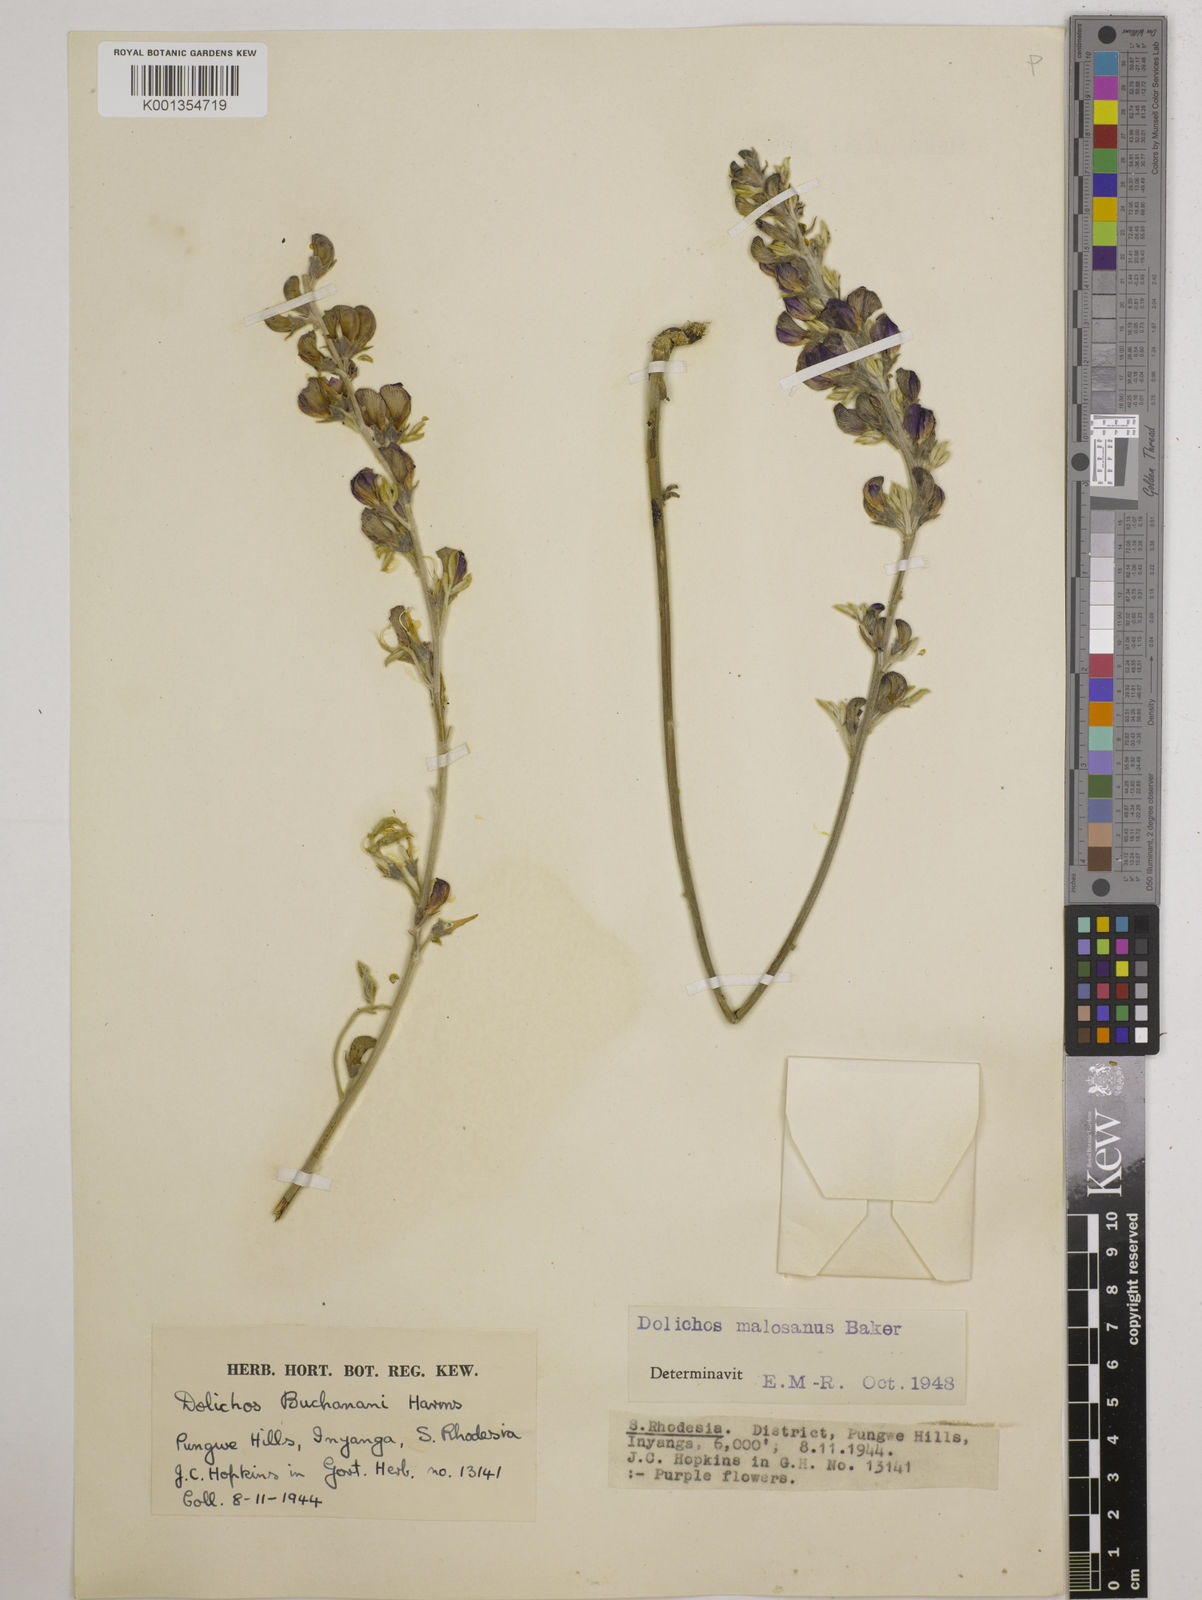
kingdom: Plantae
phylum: Tracheophyta
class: Magnoliopsida
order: Fabales
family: Fabaceae
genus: Dolichos
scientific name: Dolichos kilimandscharicus
